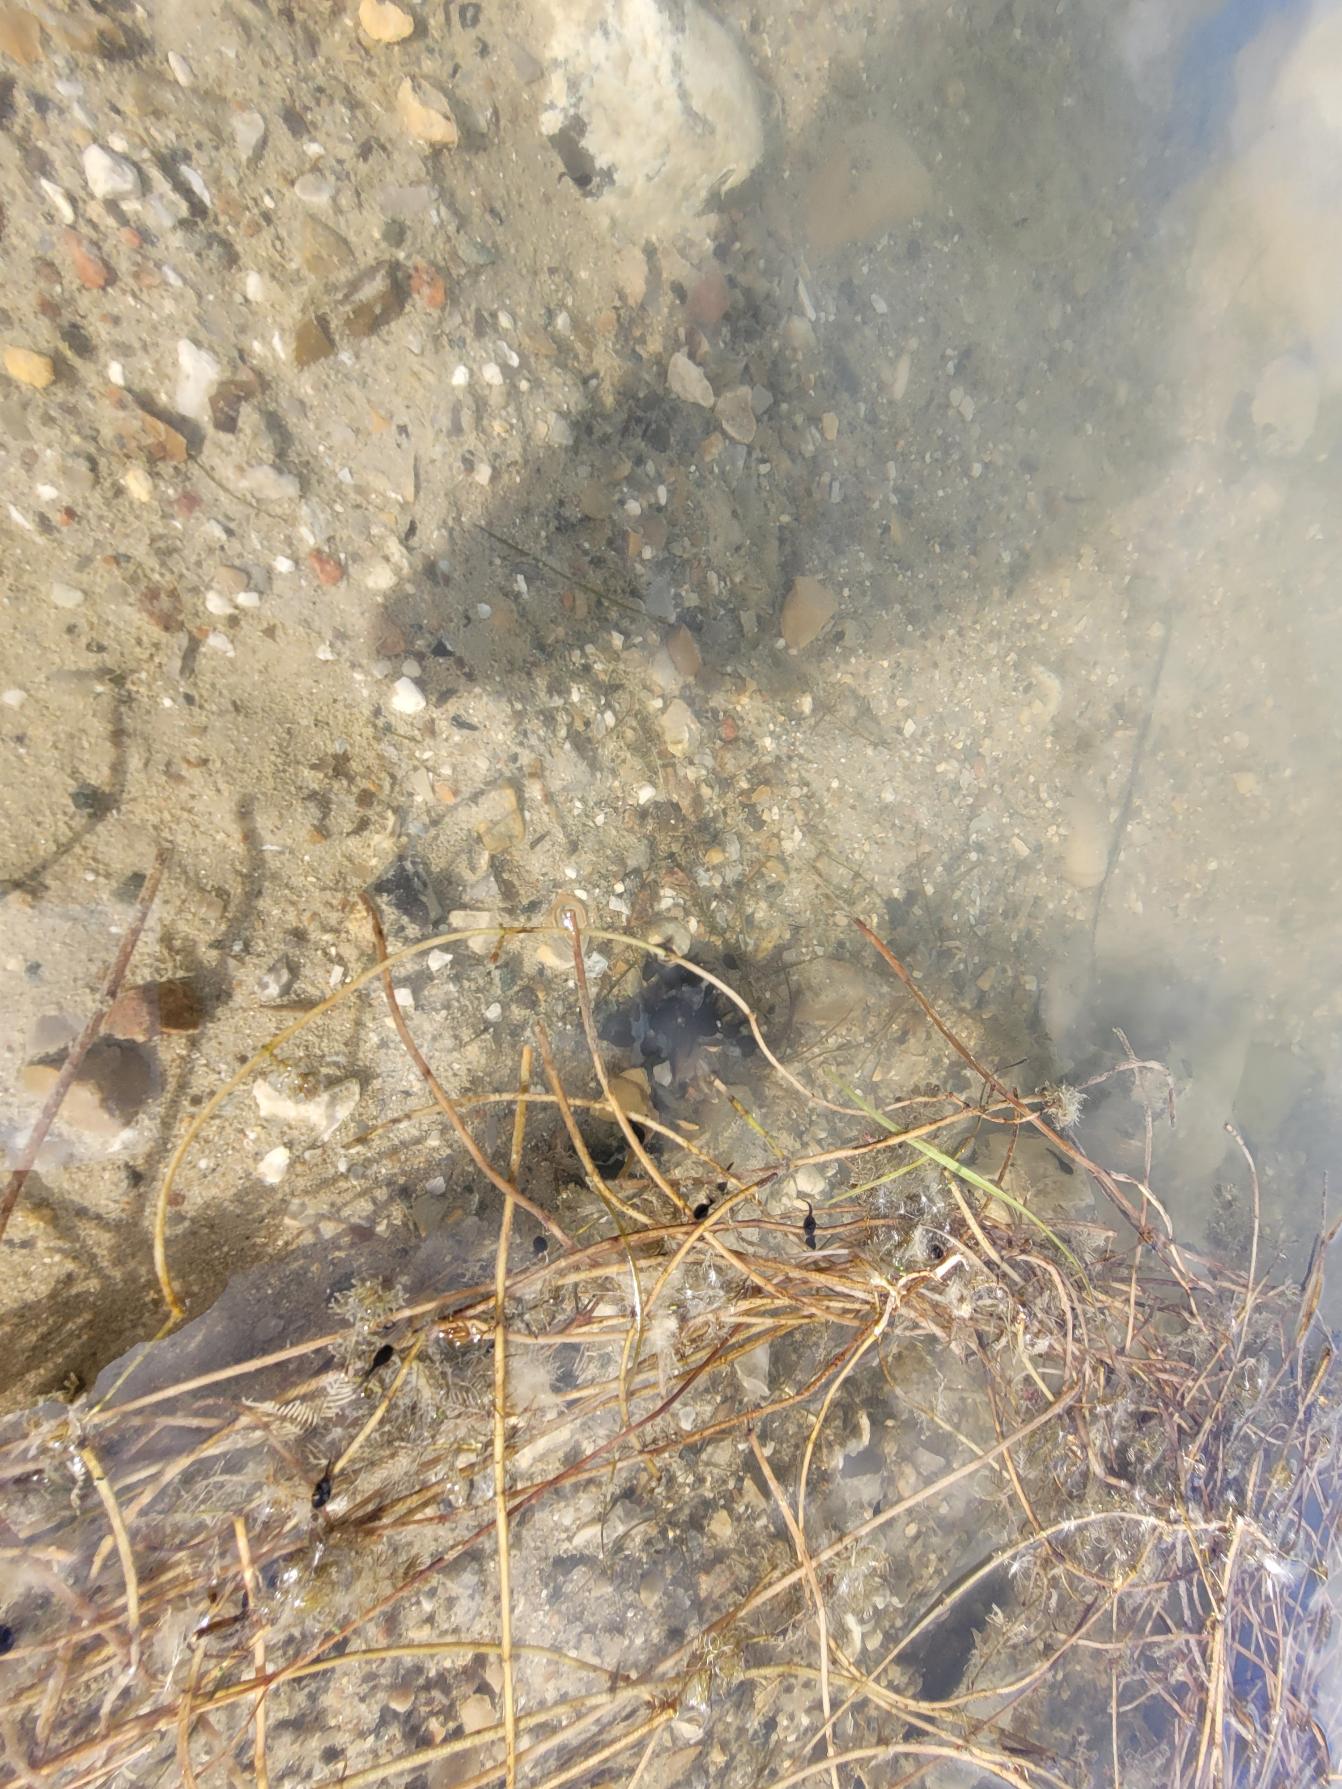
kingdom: Animalia
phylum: Chordata
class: Amphibia
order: Anura
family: Bufonidae
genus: Bufo
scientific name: Bufo bufo
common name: Skrubtudse
